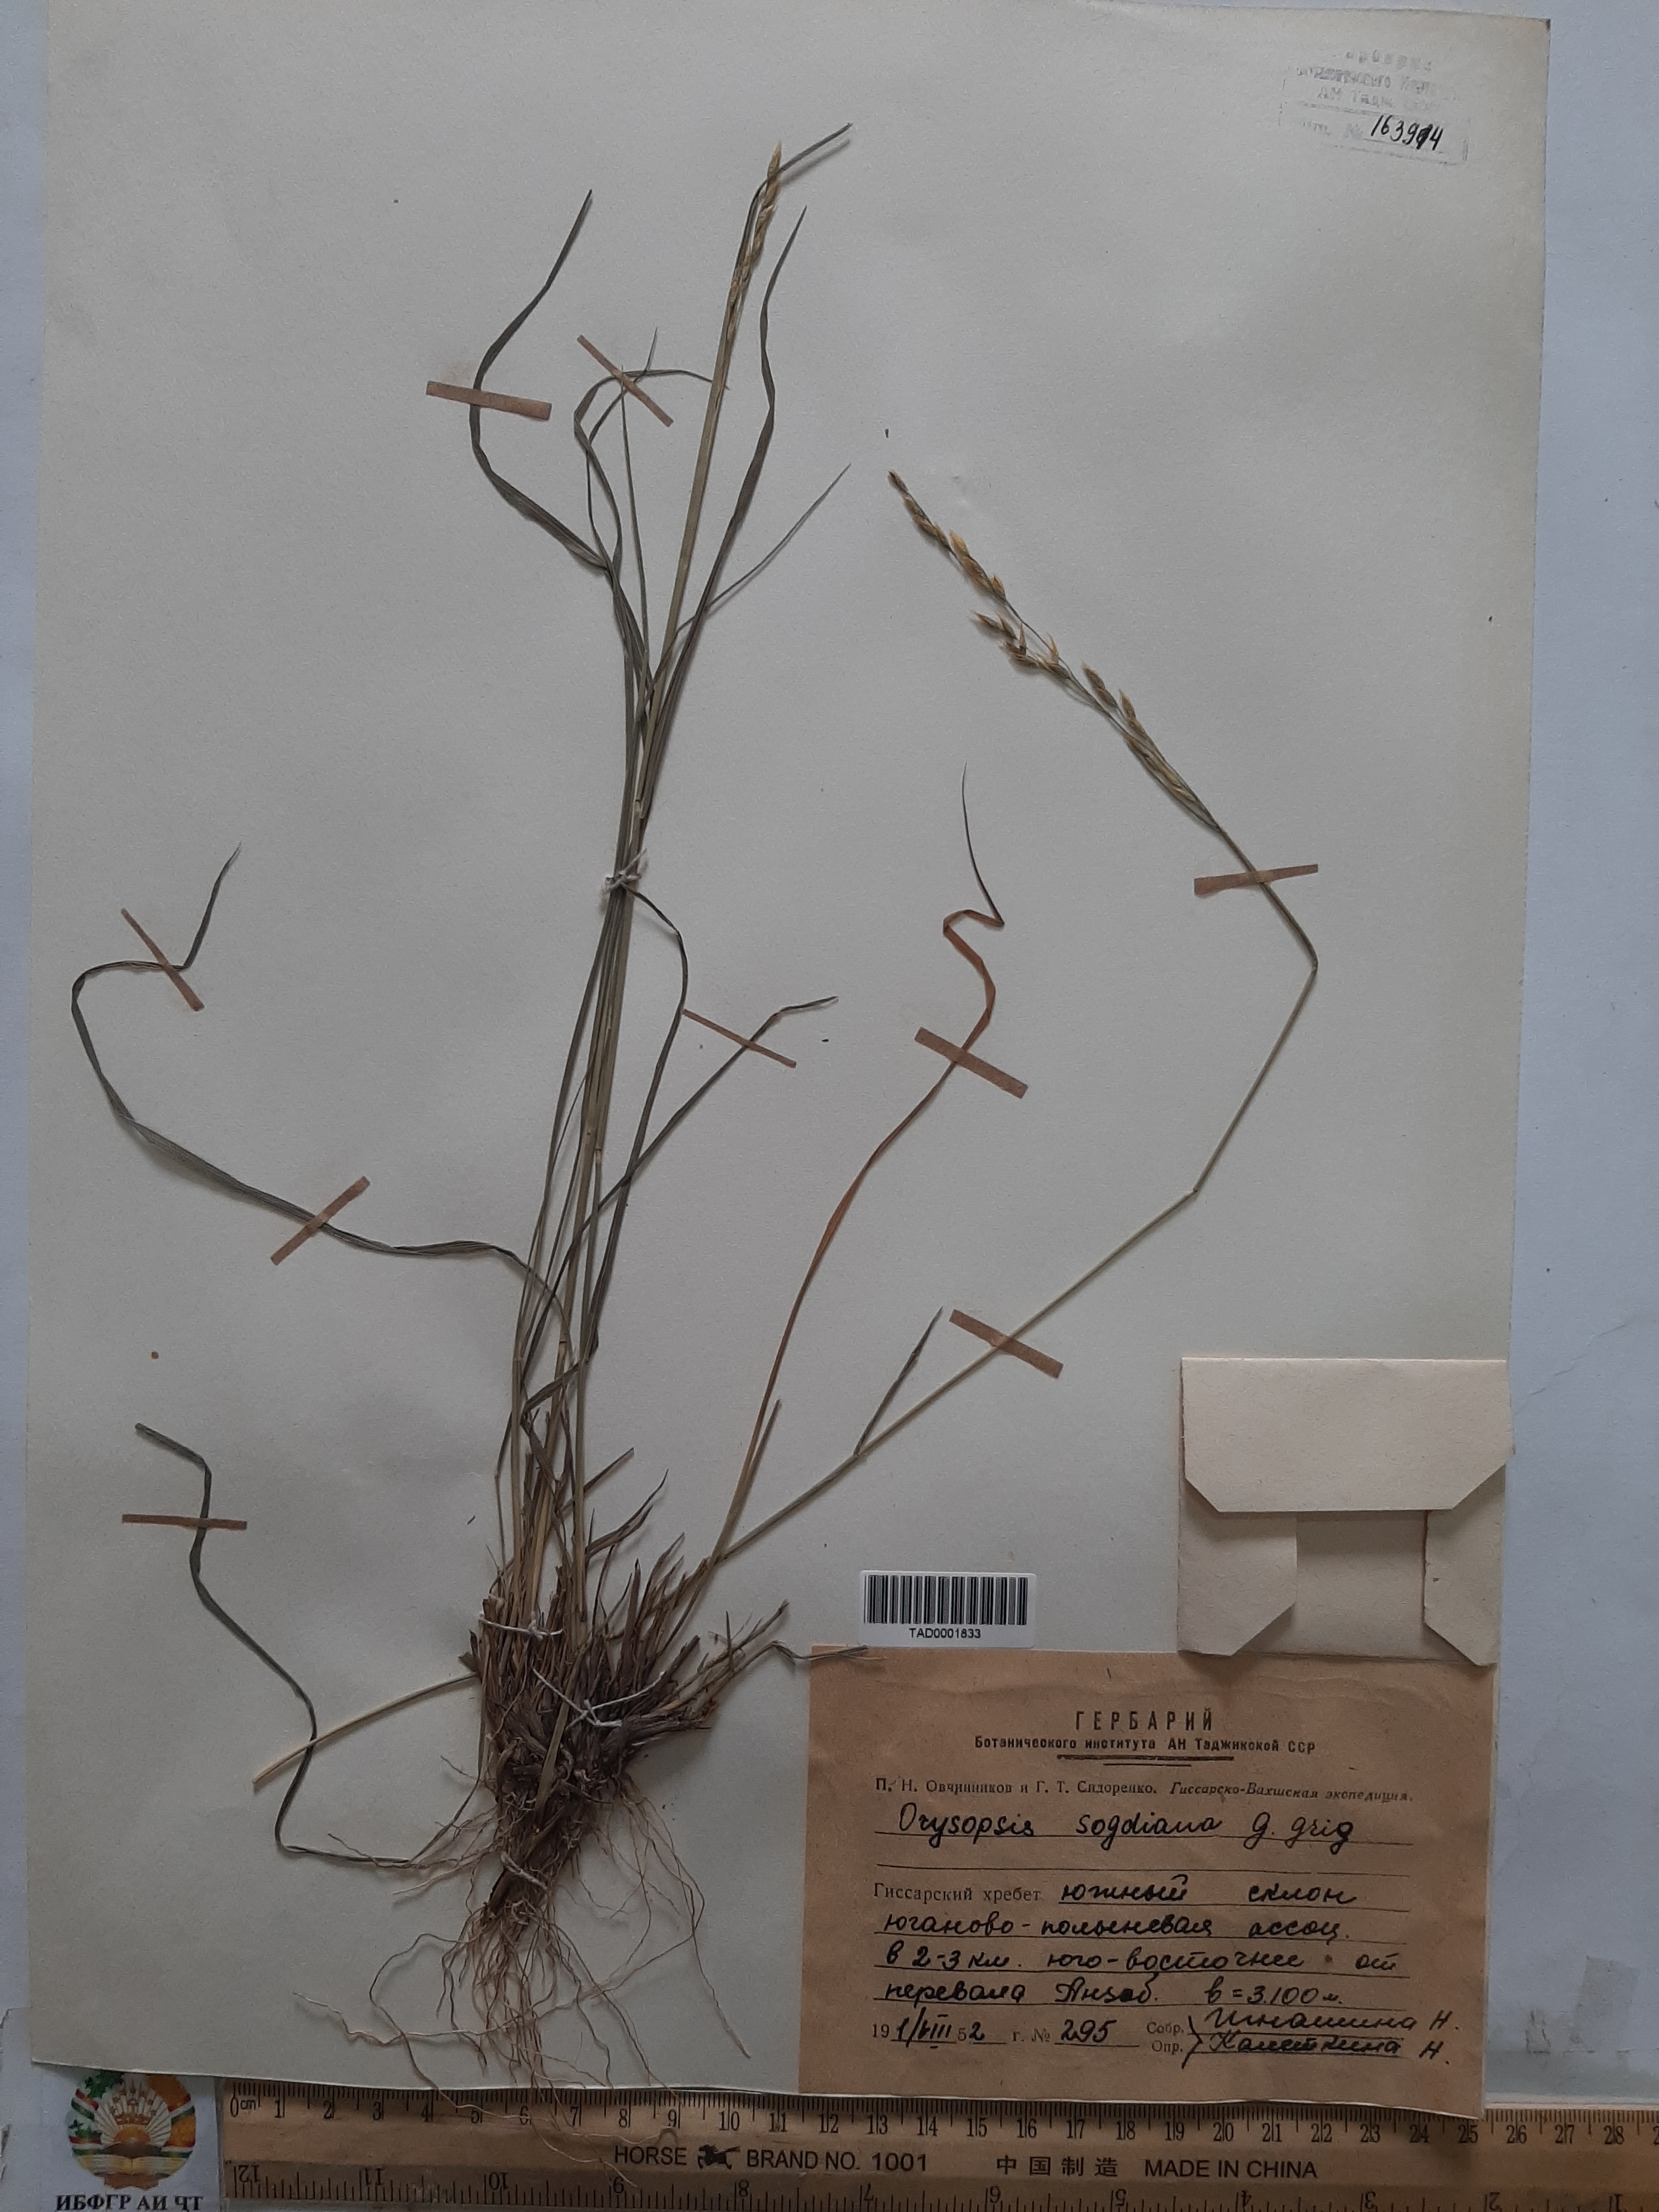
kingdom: Plantae
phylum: Tracheophyta
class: Liliopsida
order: Poales
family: Poaceae
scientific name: Poaceae
